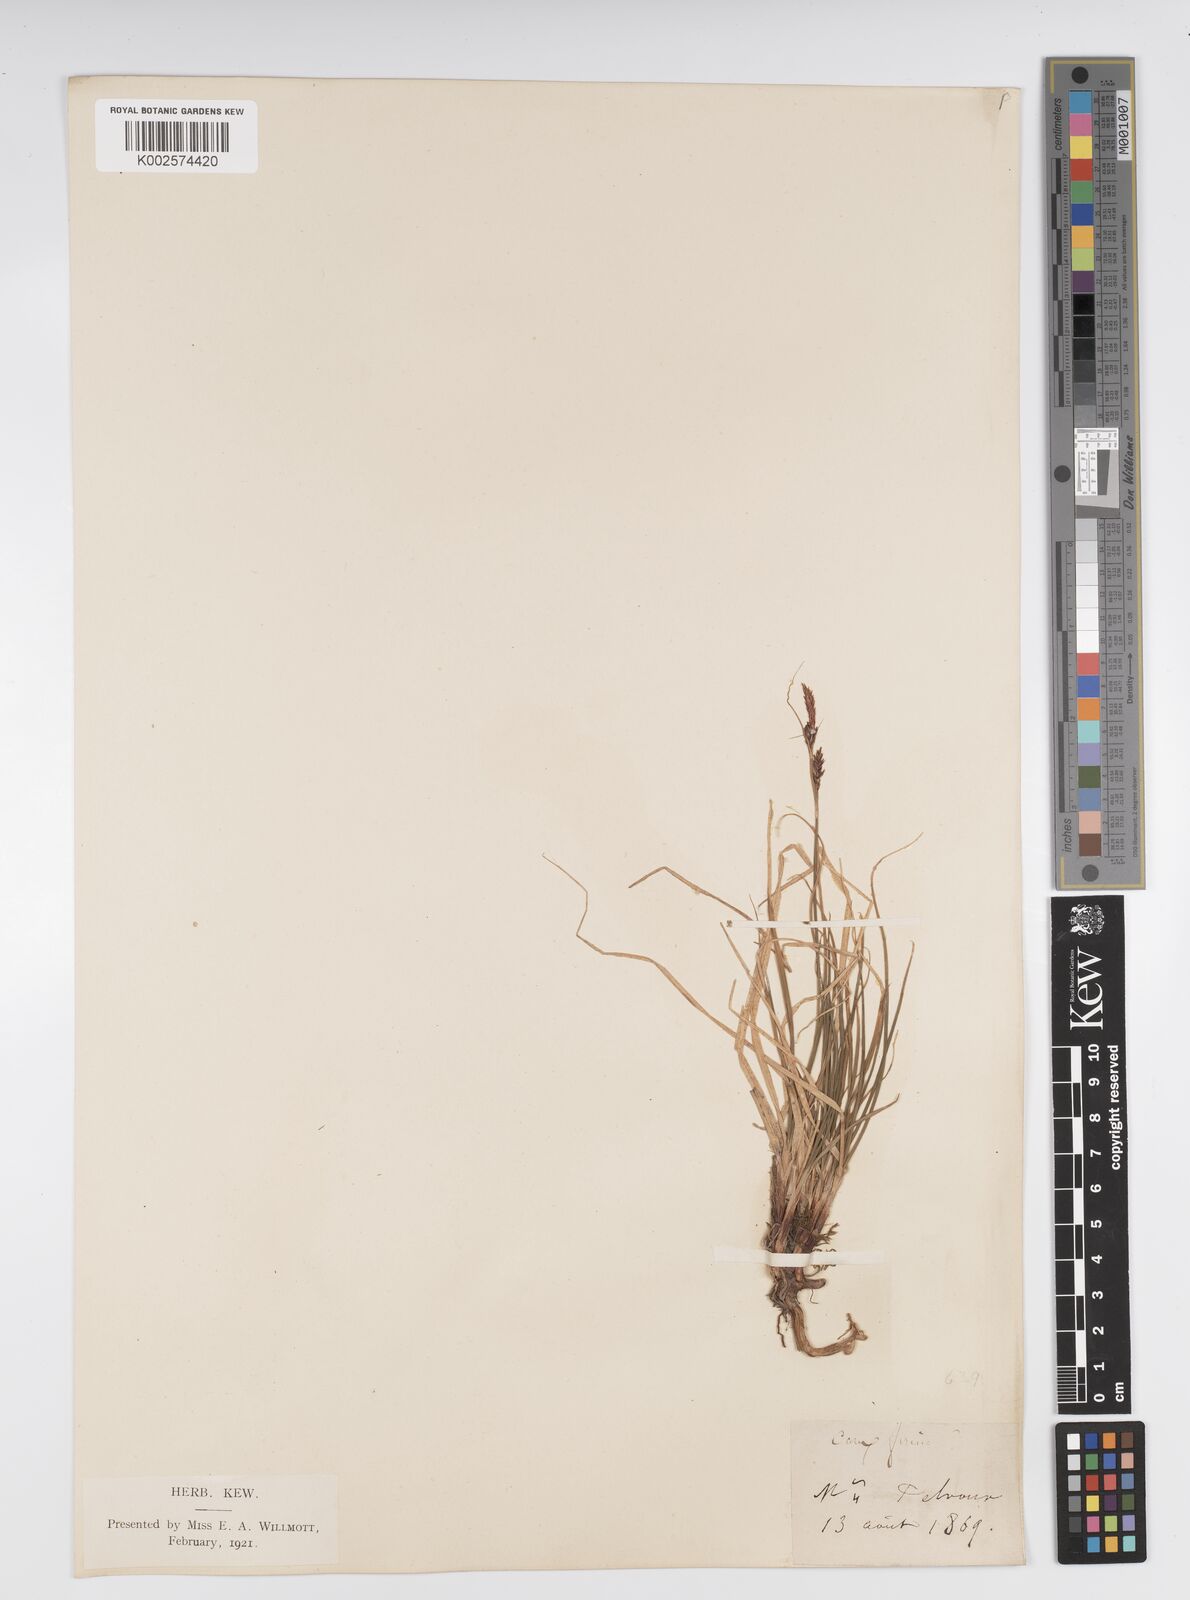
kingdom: Plantae
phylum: Tracheophyta
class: Liliopsida
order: Poales
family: Cyperaceae
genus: Carex
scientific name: Carex firma
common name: Dwarf pillow sedge
